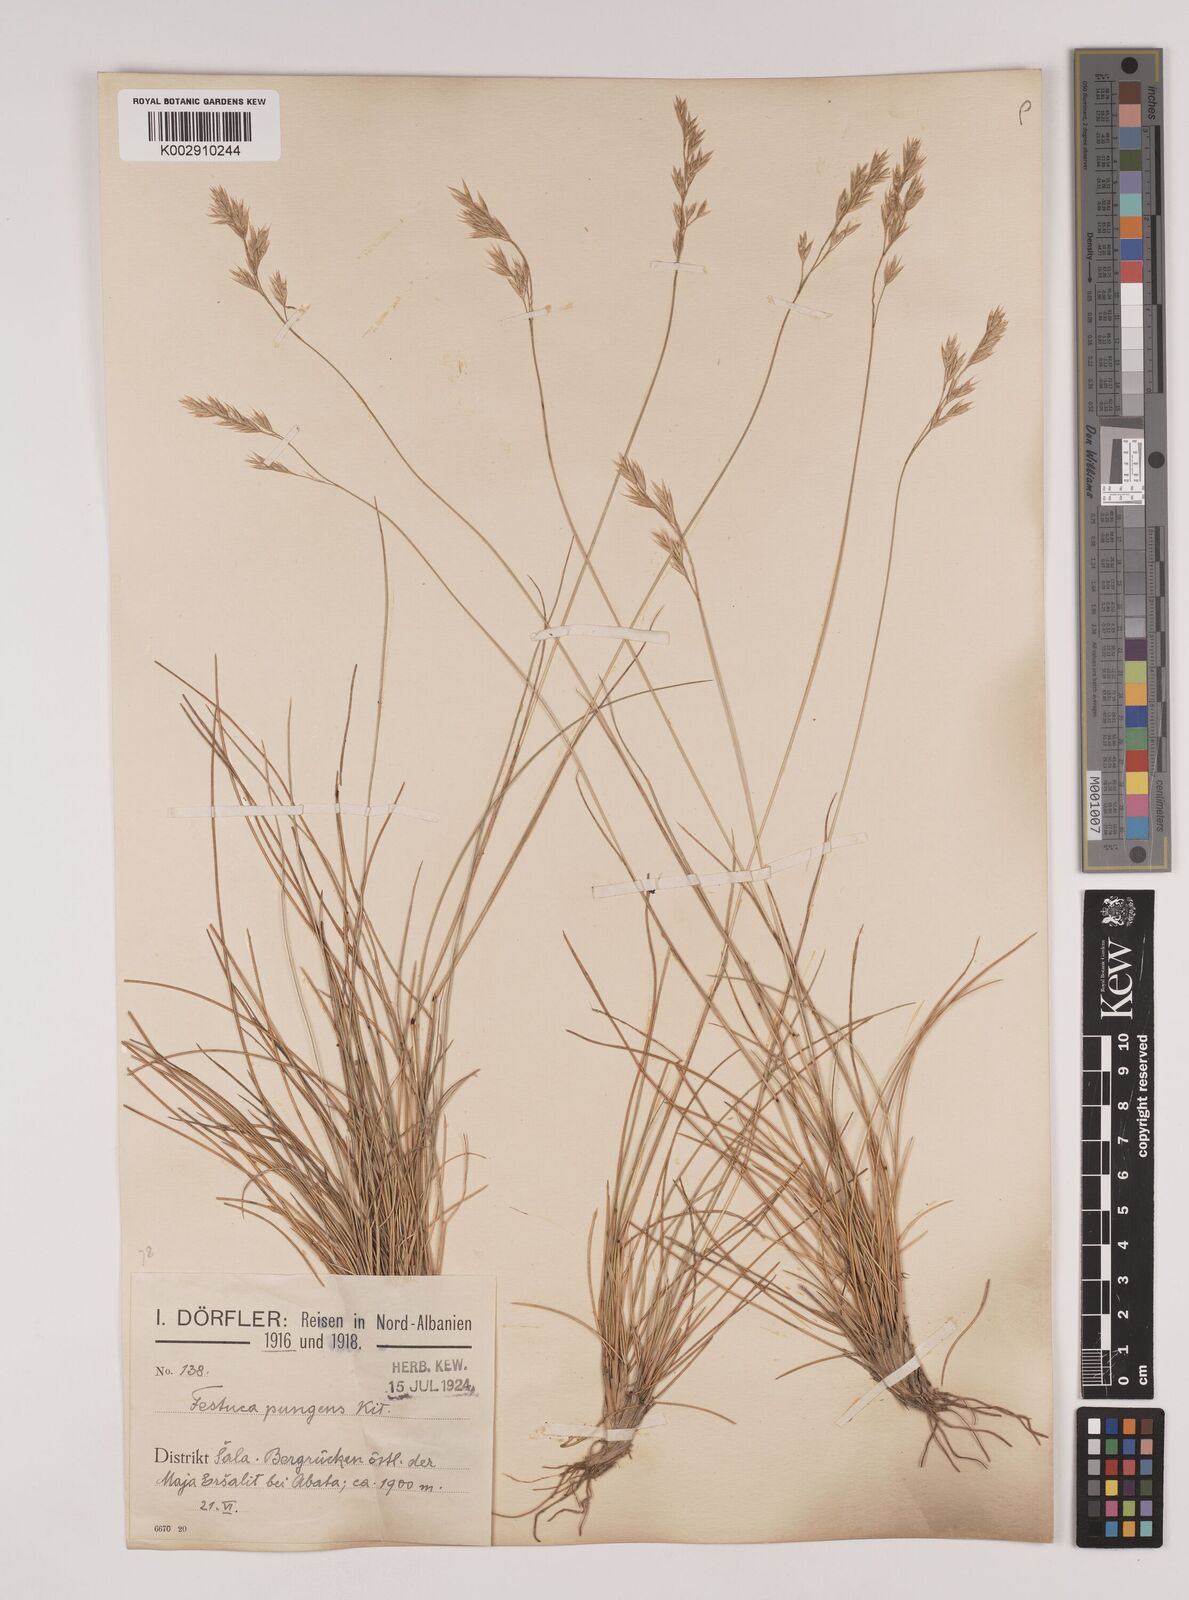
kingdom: Plantae
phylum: Tracheophyta
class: Liliopsida
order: Poales
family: Poaceae
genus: Festuca
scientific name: Festuca bosniaca
